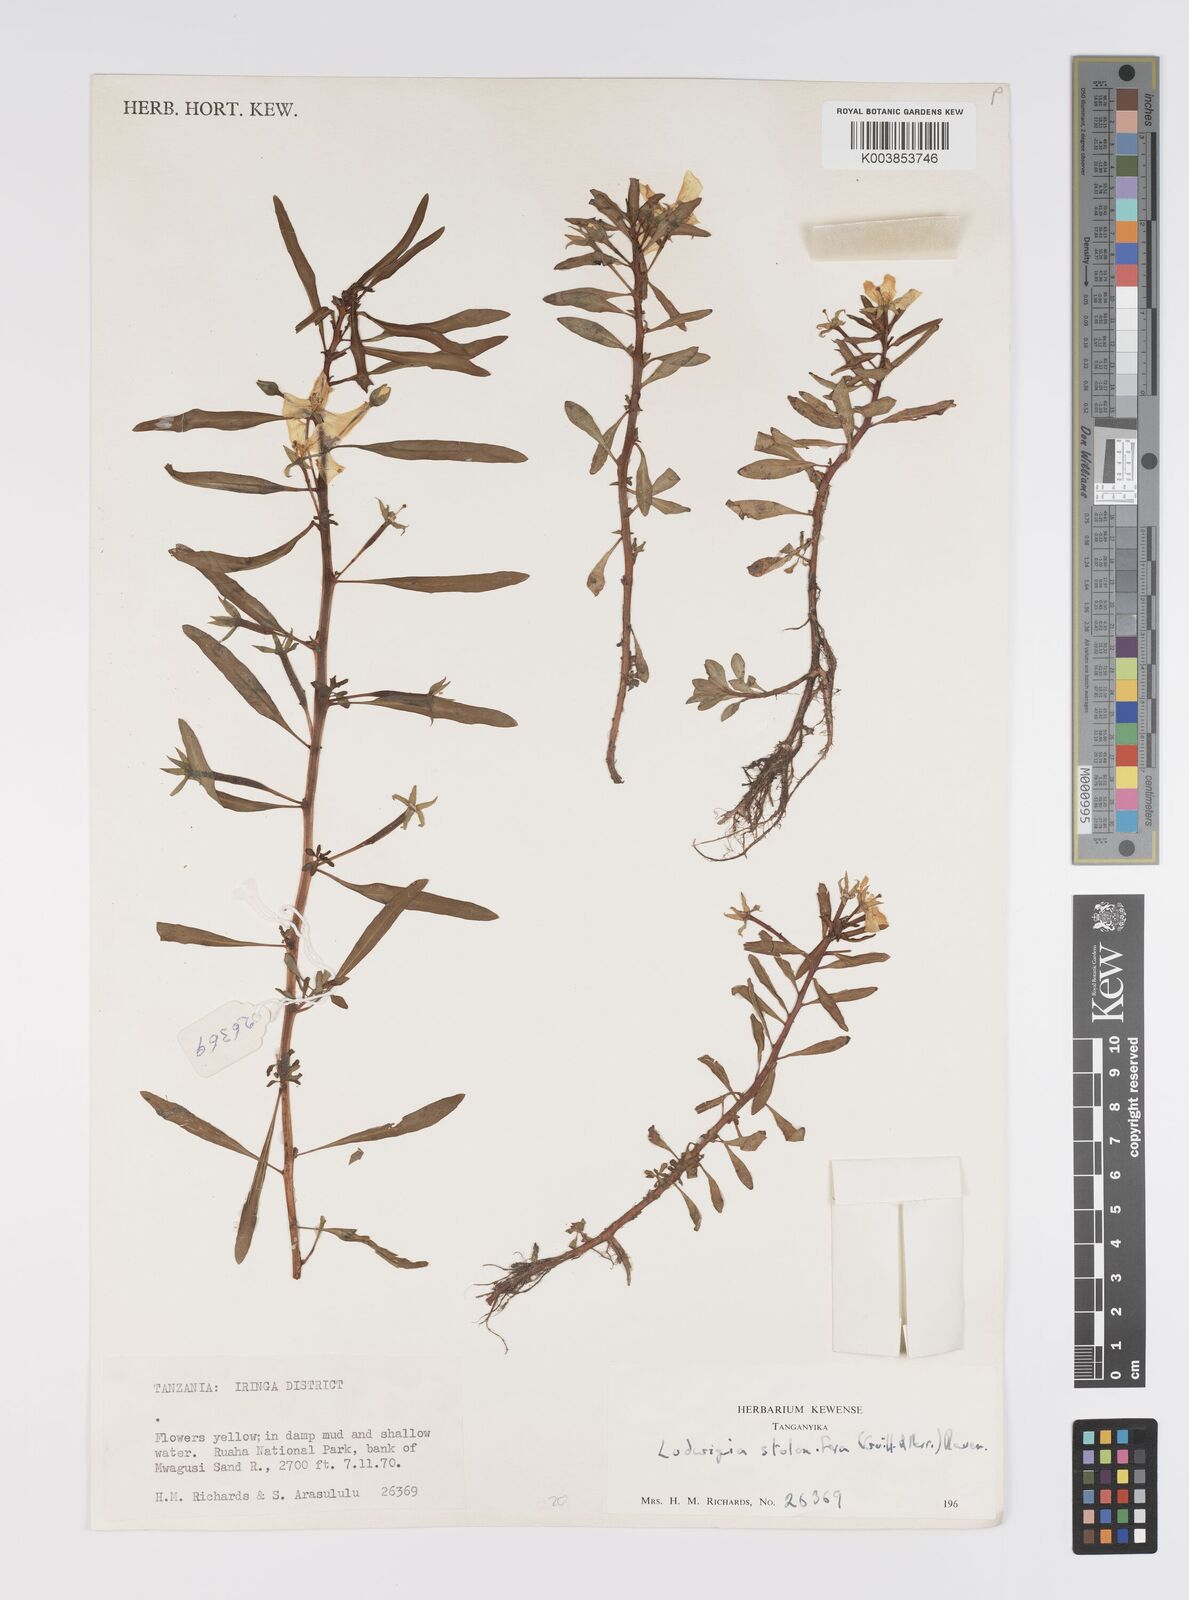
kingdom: Plantae
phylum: Tracheophyta
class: Magnoliopsida
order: Myrtales
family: Onagraceae
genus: Ludwigia
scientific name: Ludwigia adscendens
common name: Creeping water primrose
